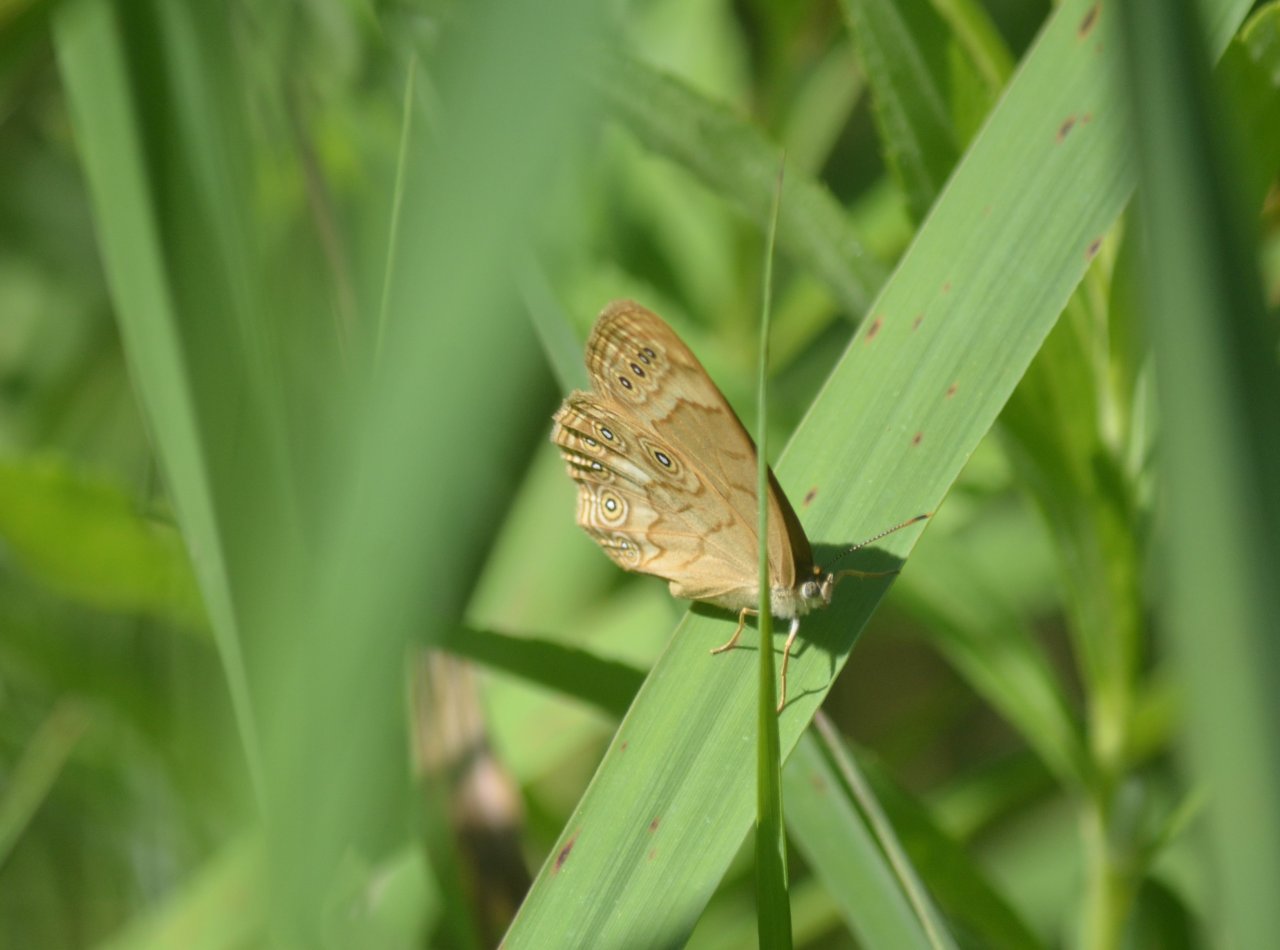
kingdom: Animalia
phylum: Arthropoda
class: Insecta
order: Lepidoptera
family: Nymphalidae
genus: Lethe
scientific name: Lethe eurydice
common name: Eyed Brown
